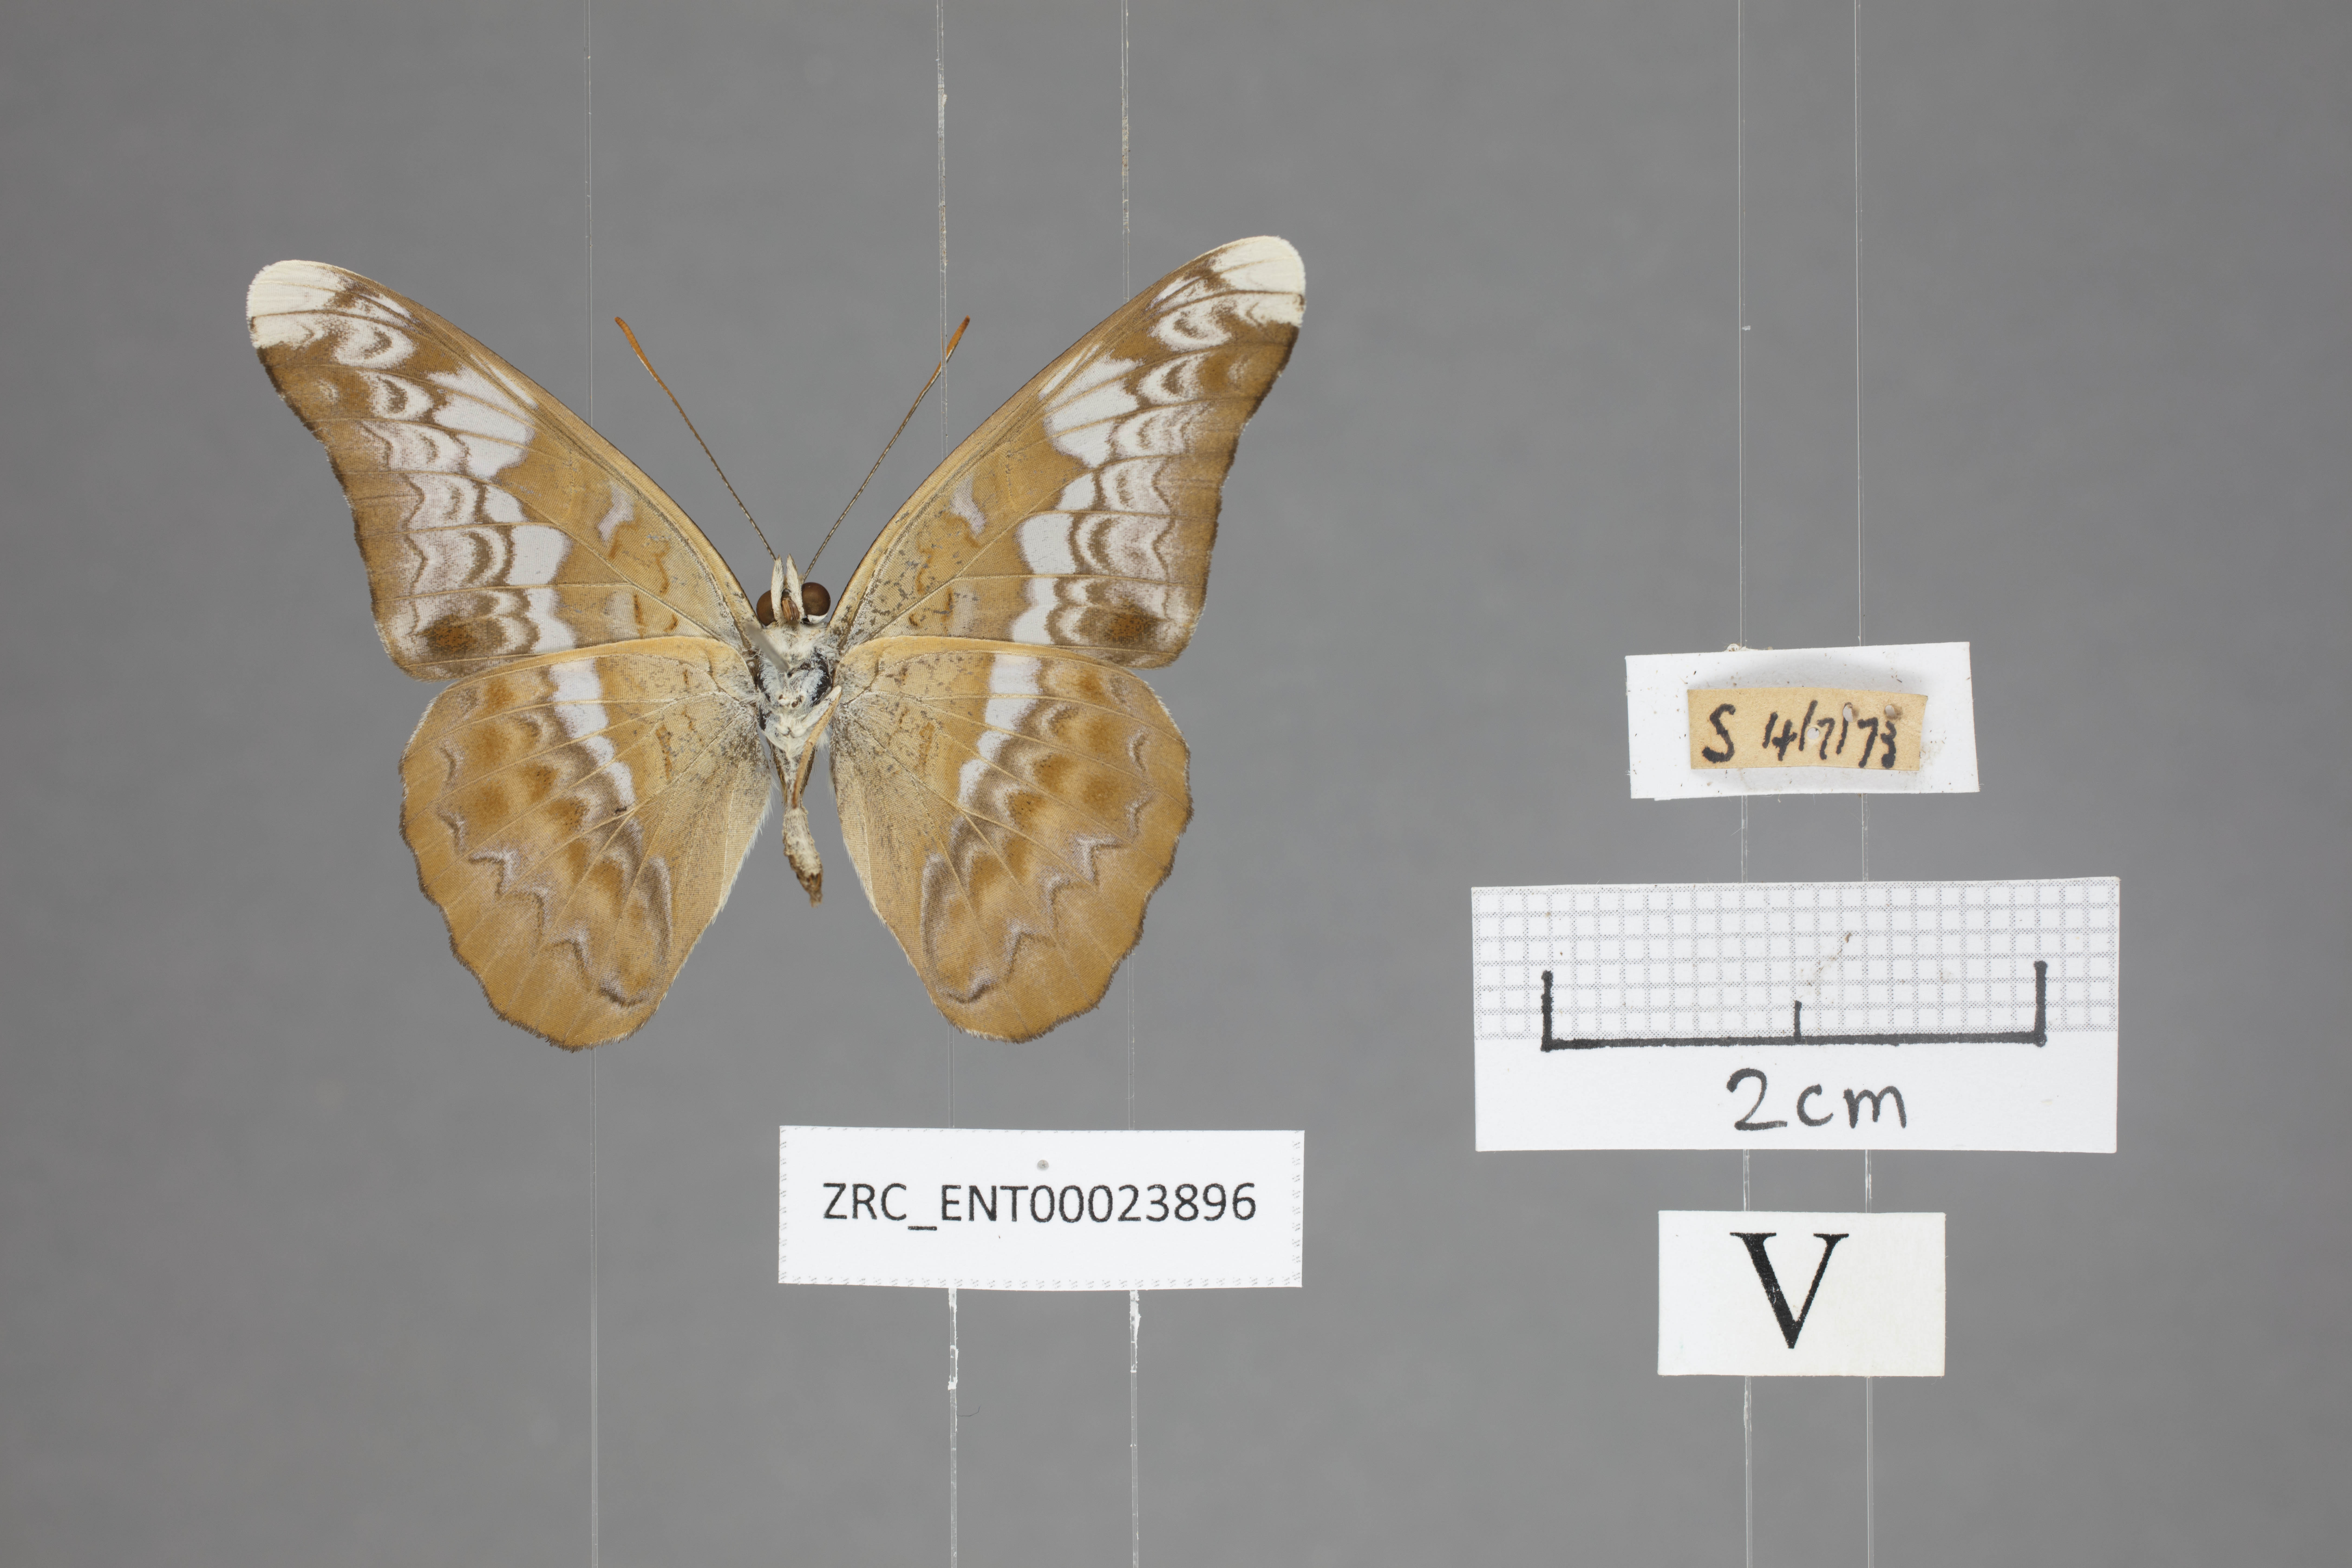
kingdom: Animalia
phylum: Arthropoda
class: Insecta
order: Lepidoptera
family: Nymphalidae
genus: Lebadea
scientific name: Lebadea martha
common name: Knight
